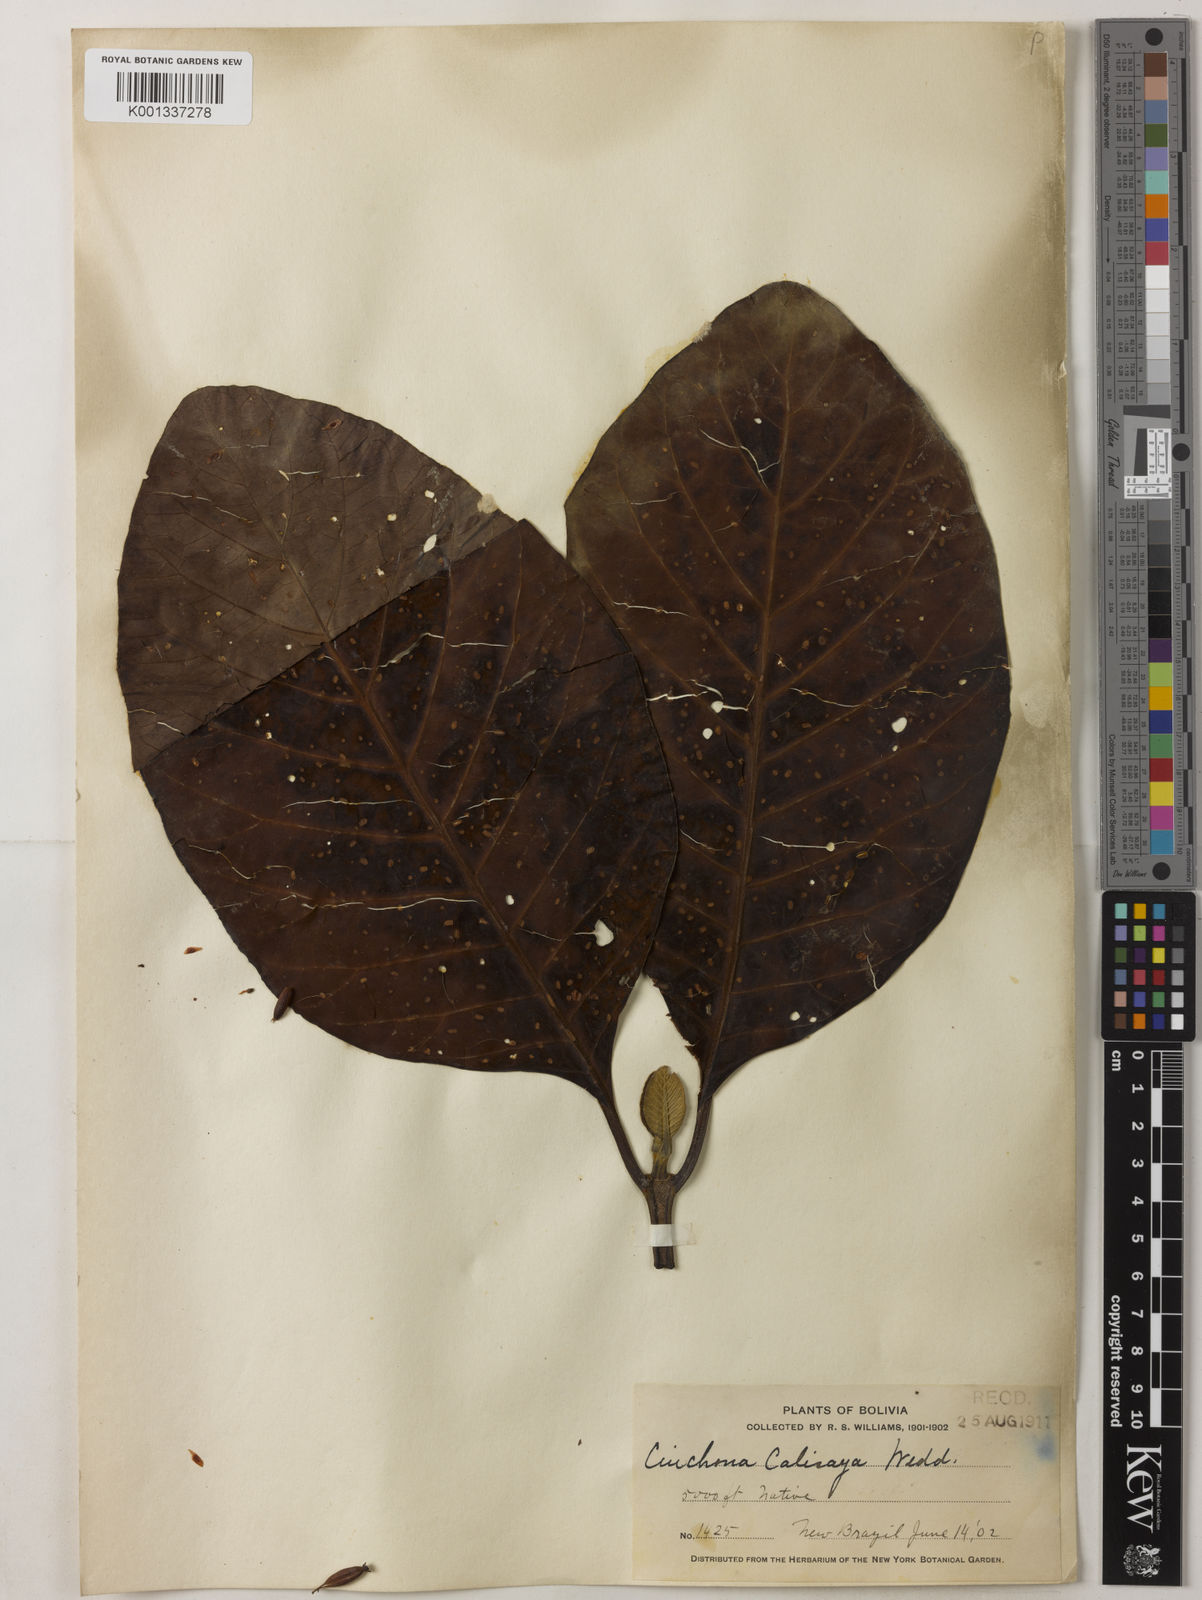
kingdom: Plantae
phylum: Tracheophyta
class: Magnoliopsida
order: Gentianales
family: Rubiaceae
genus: Cinchona
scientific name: Cinchona calisaya
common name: Ledgerbark
